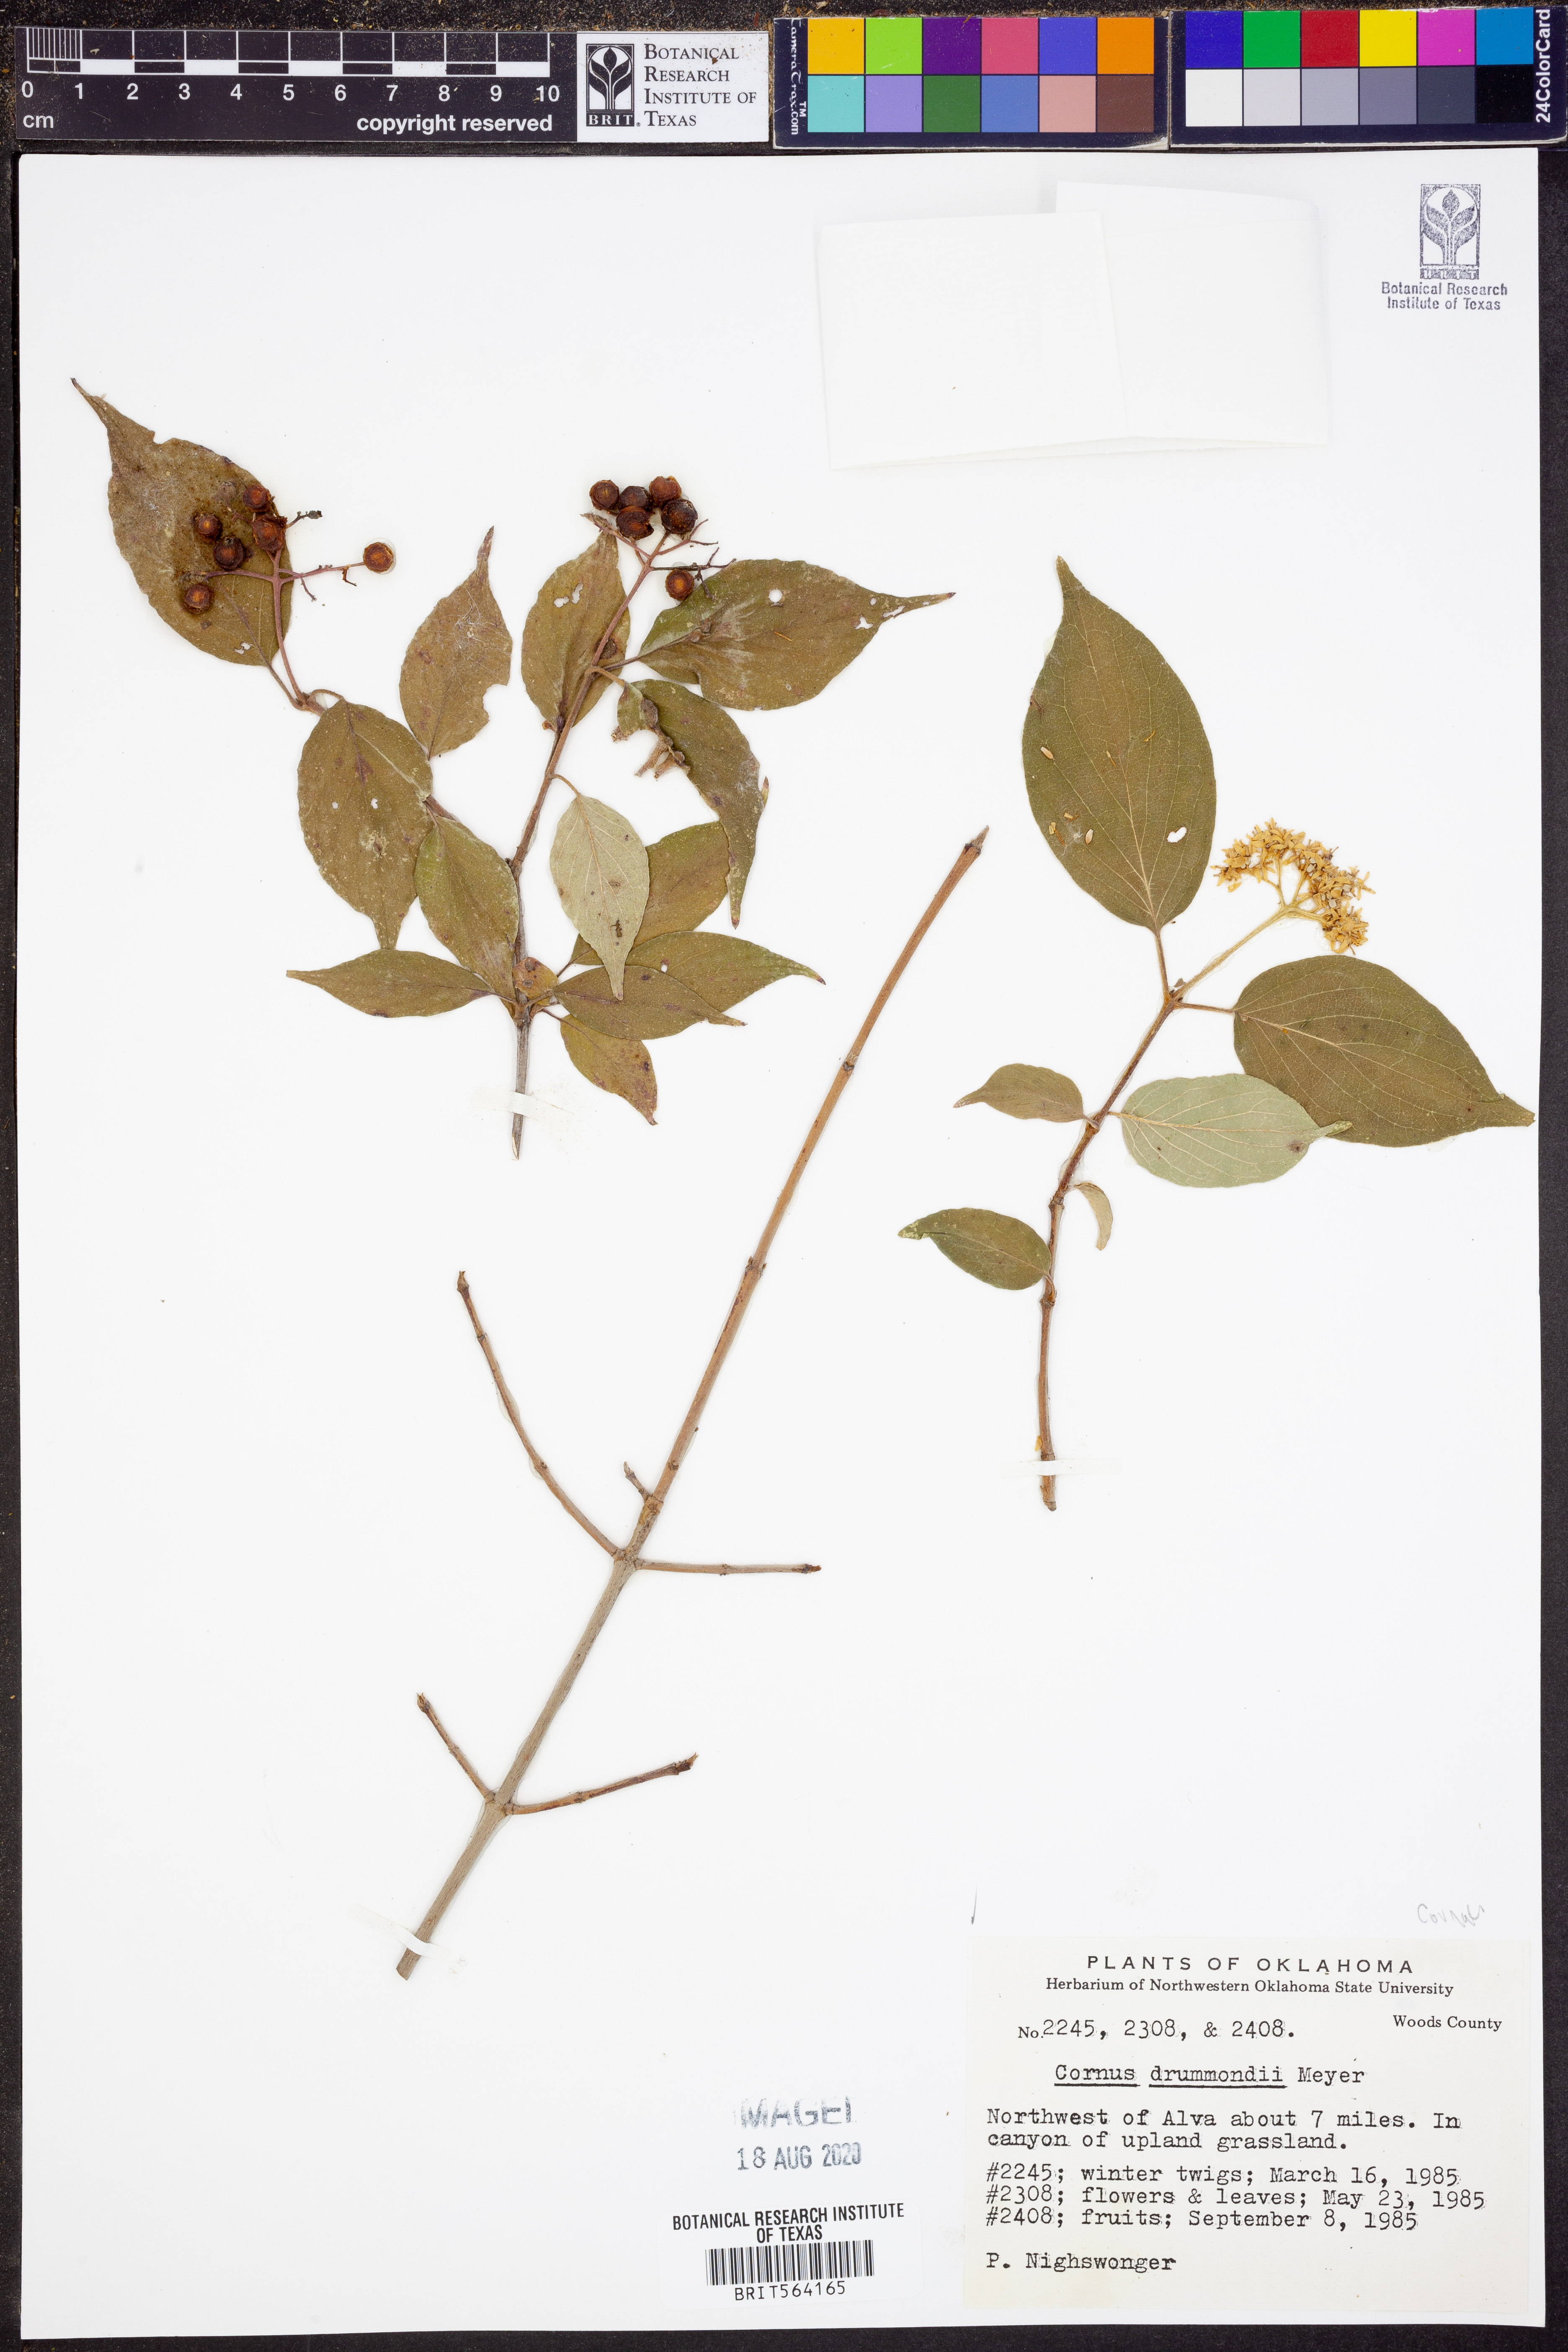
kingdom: Plantae
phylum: Tracheophyta
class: Magnoliopsida
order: Cornales
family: Cornaceae
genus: Cornus
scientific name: Cornus drummondii
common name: Rough-leaf dogwood
